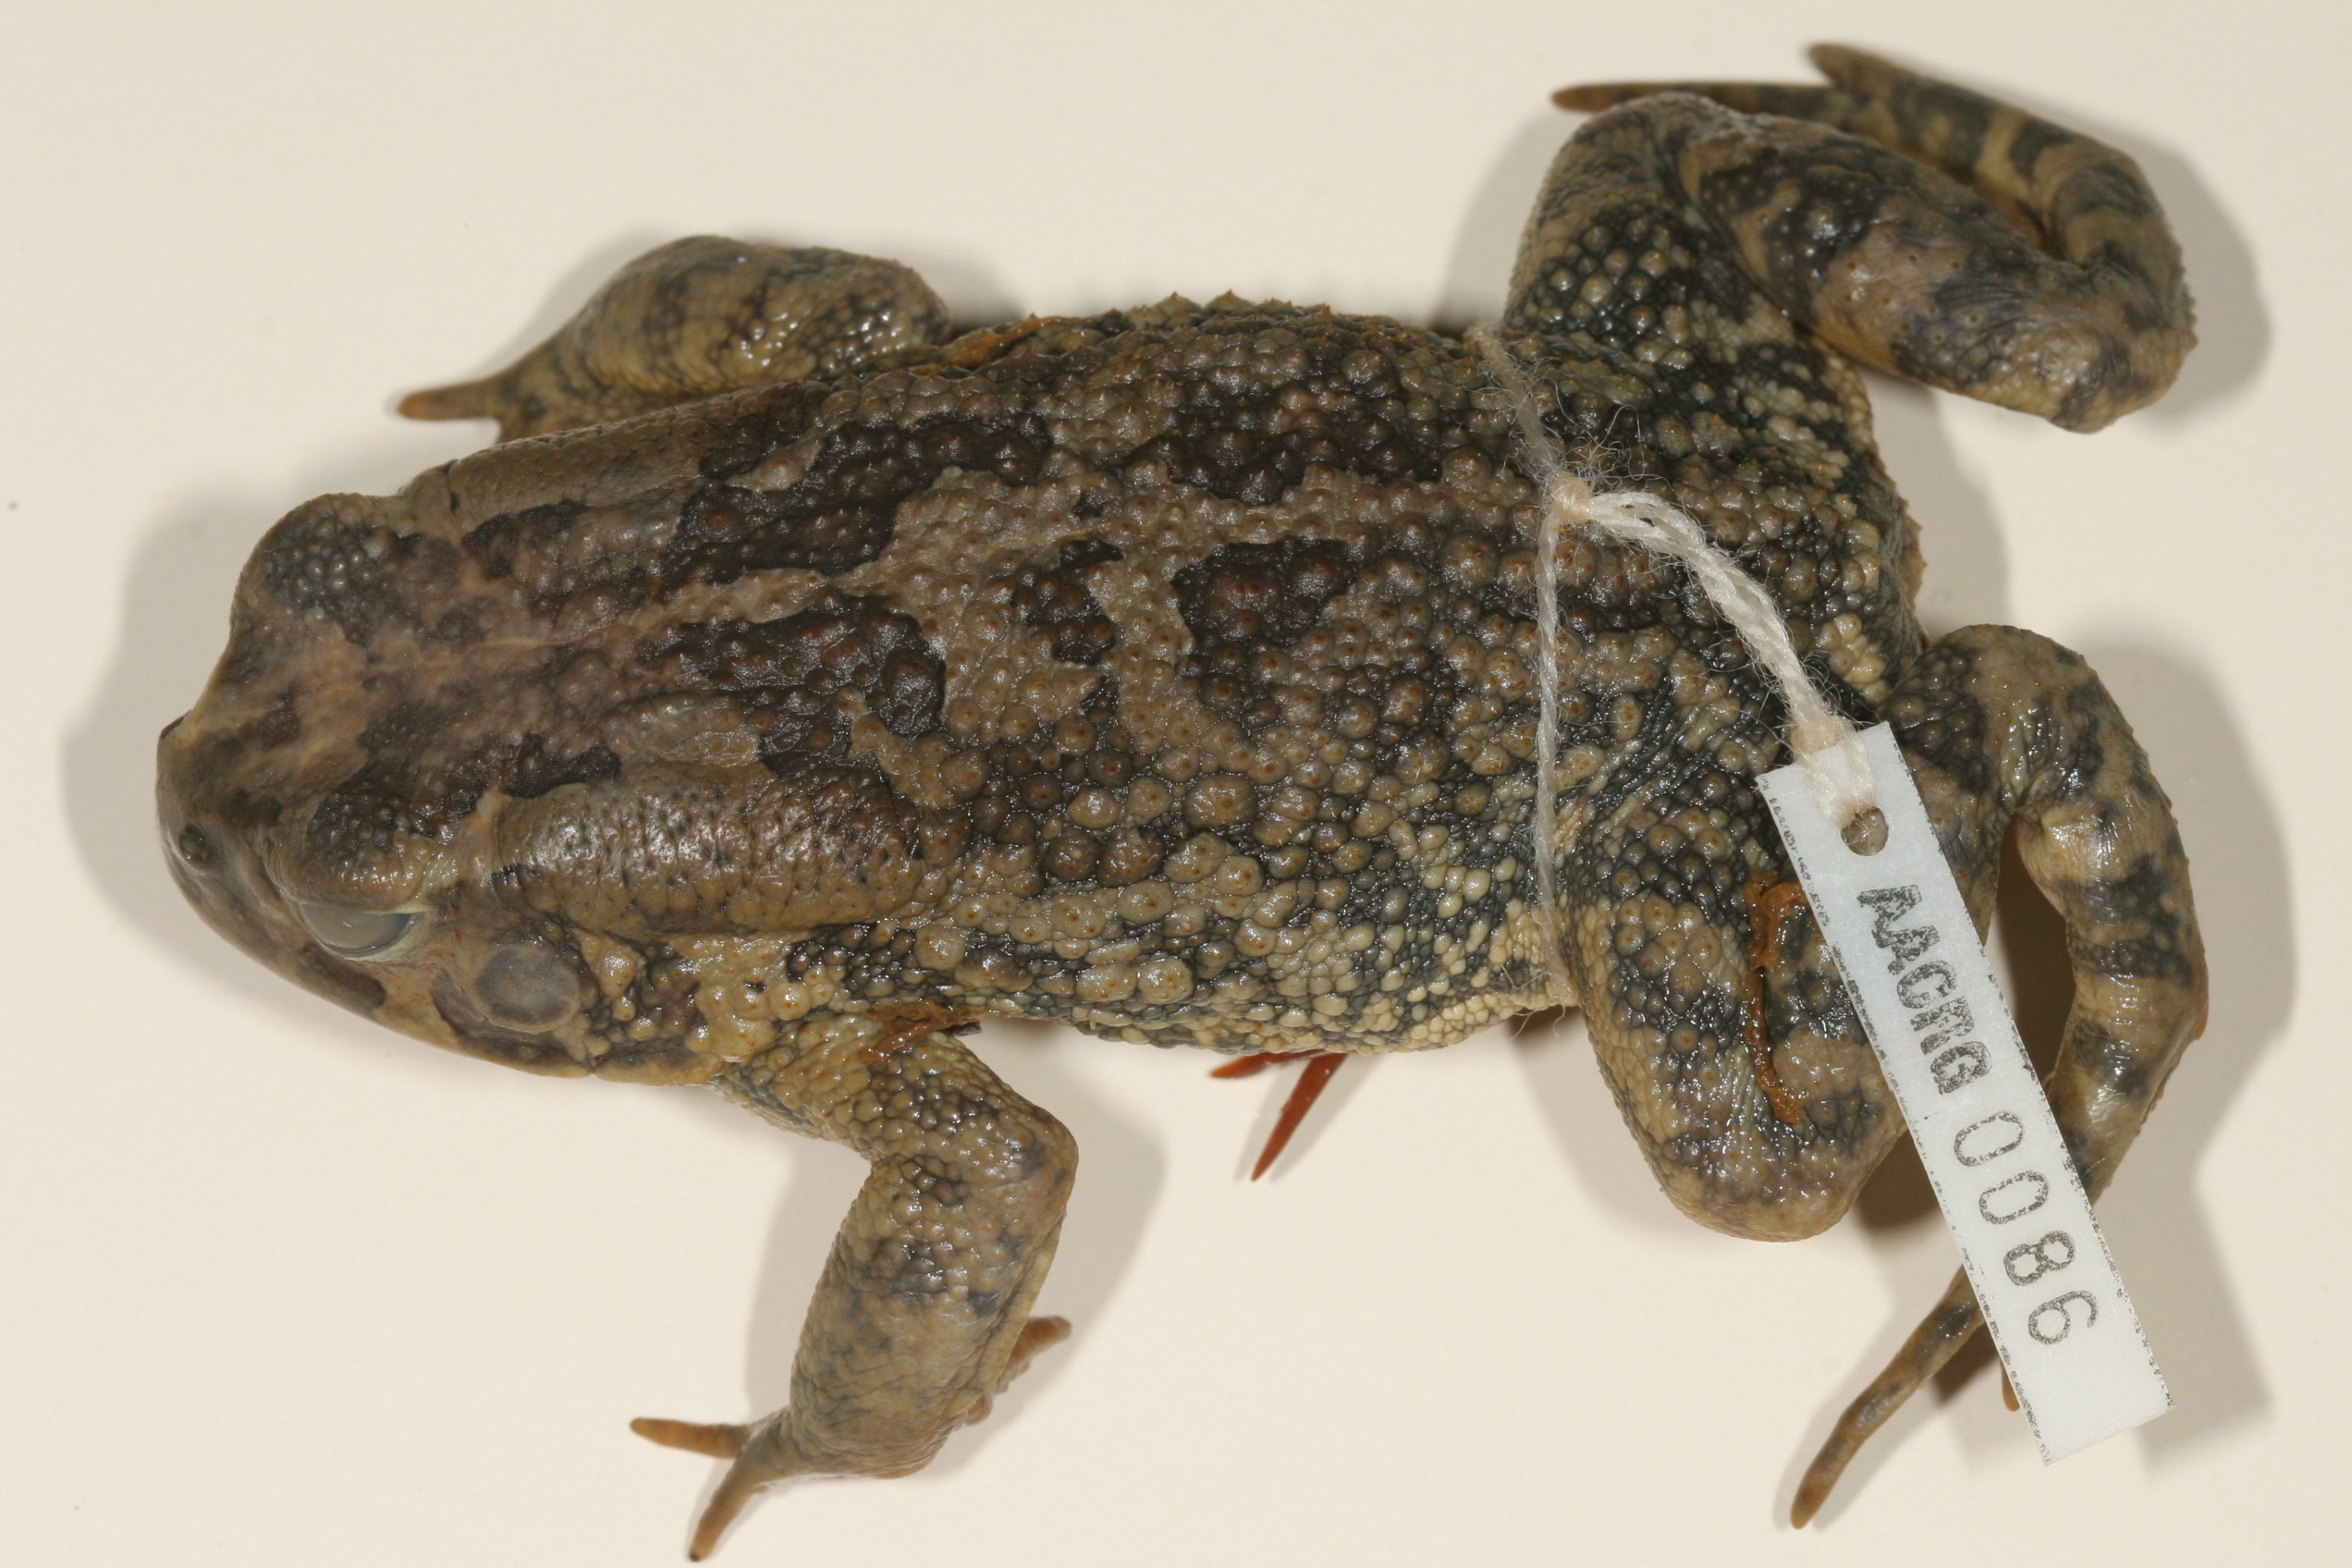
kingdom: Animalia
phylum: Chordata
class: Amphibia
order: Anura
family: Bufonidae
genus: Sclerophrys
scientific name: Sclerophrys poweri
